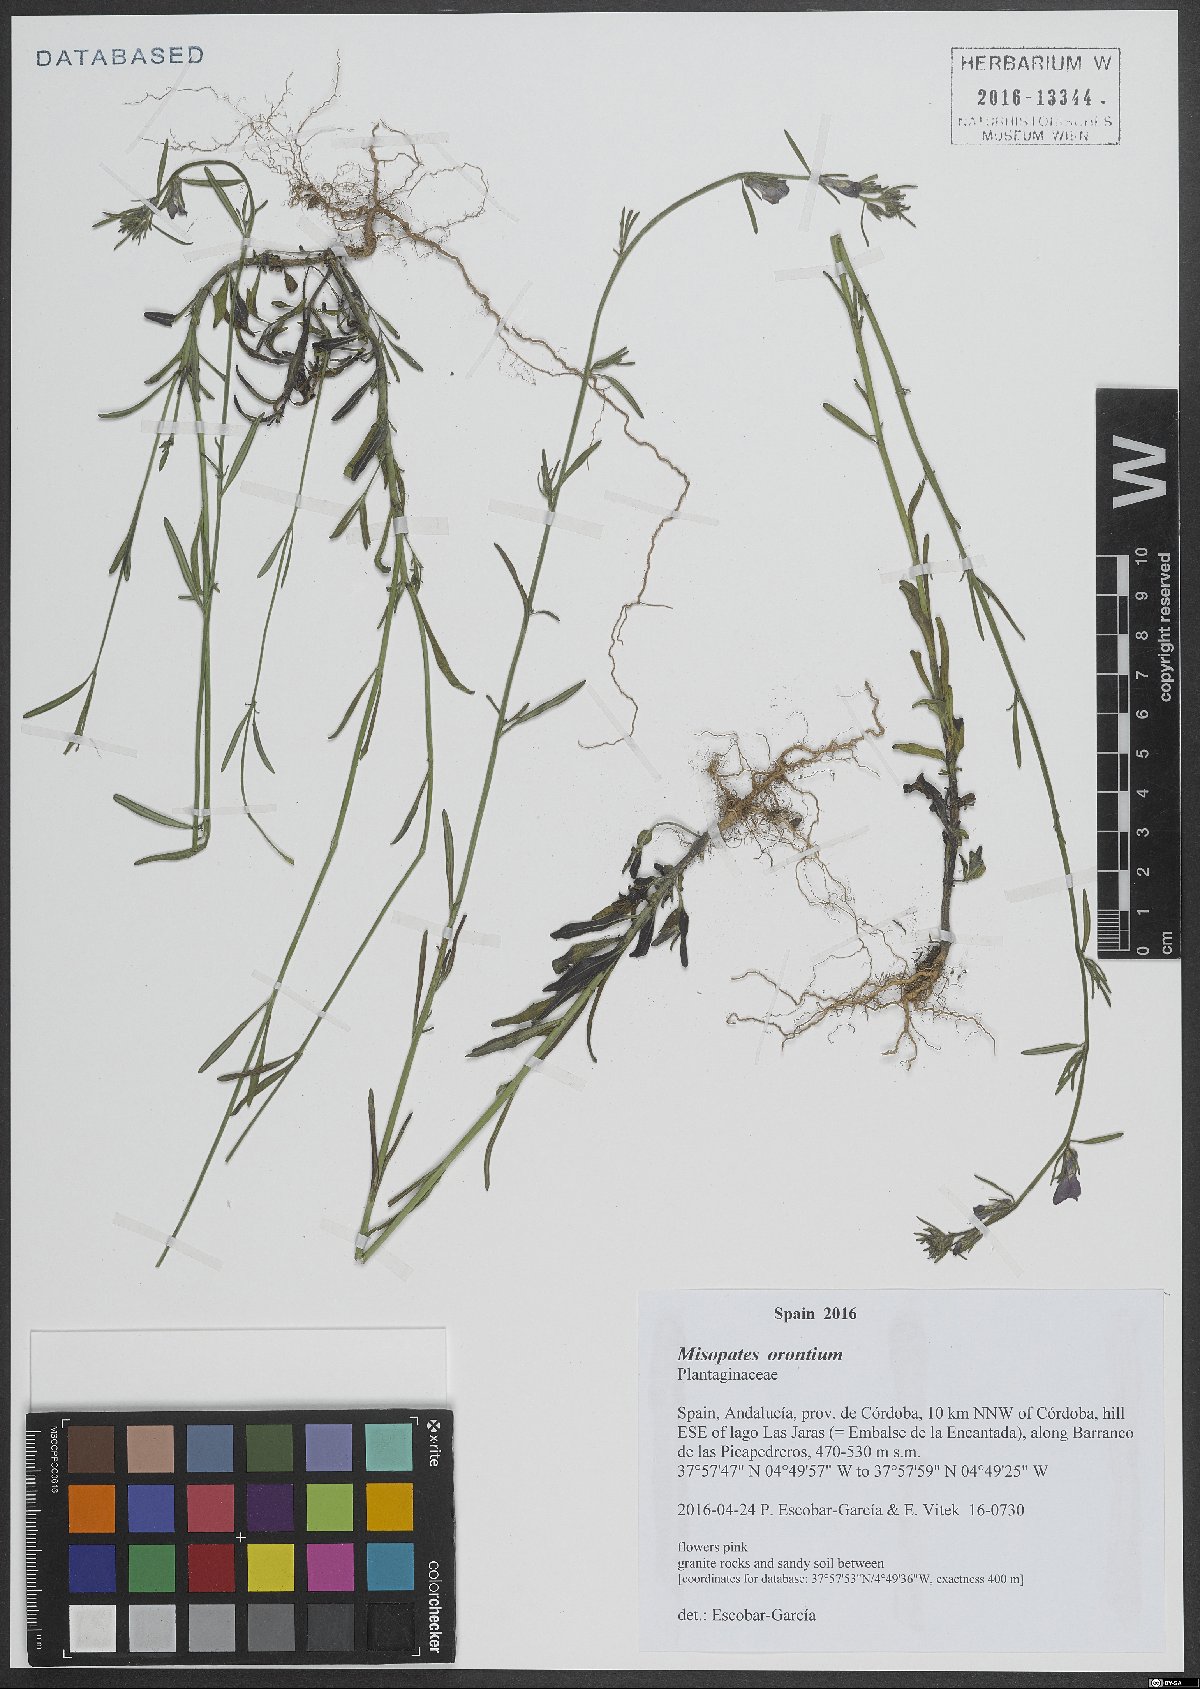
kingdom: Plantae
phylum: Tracheophyta
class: Magnoliopsida
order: Lamiales
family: Plantaginaceae
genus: Misopates
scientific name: Misopates orontium
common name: Weasel's-snout
